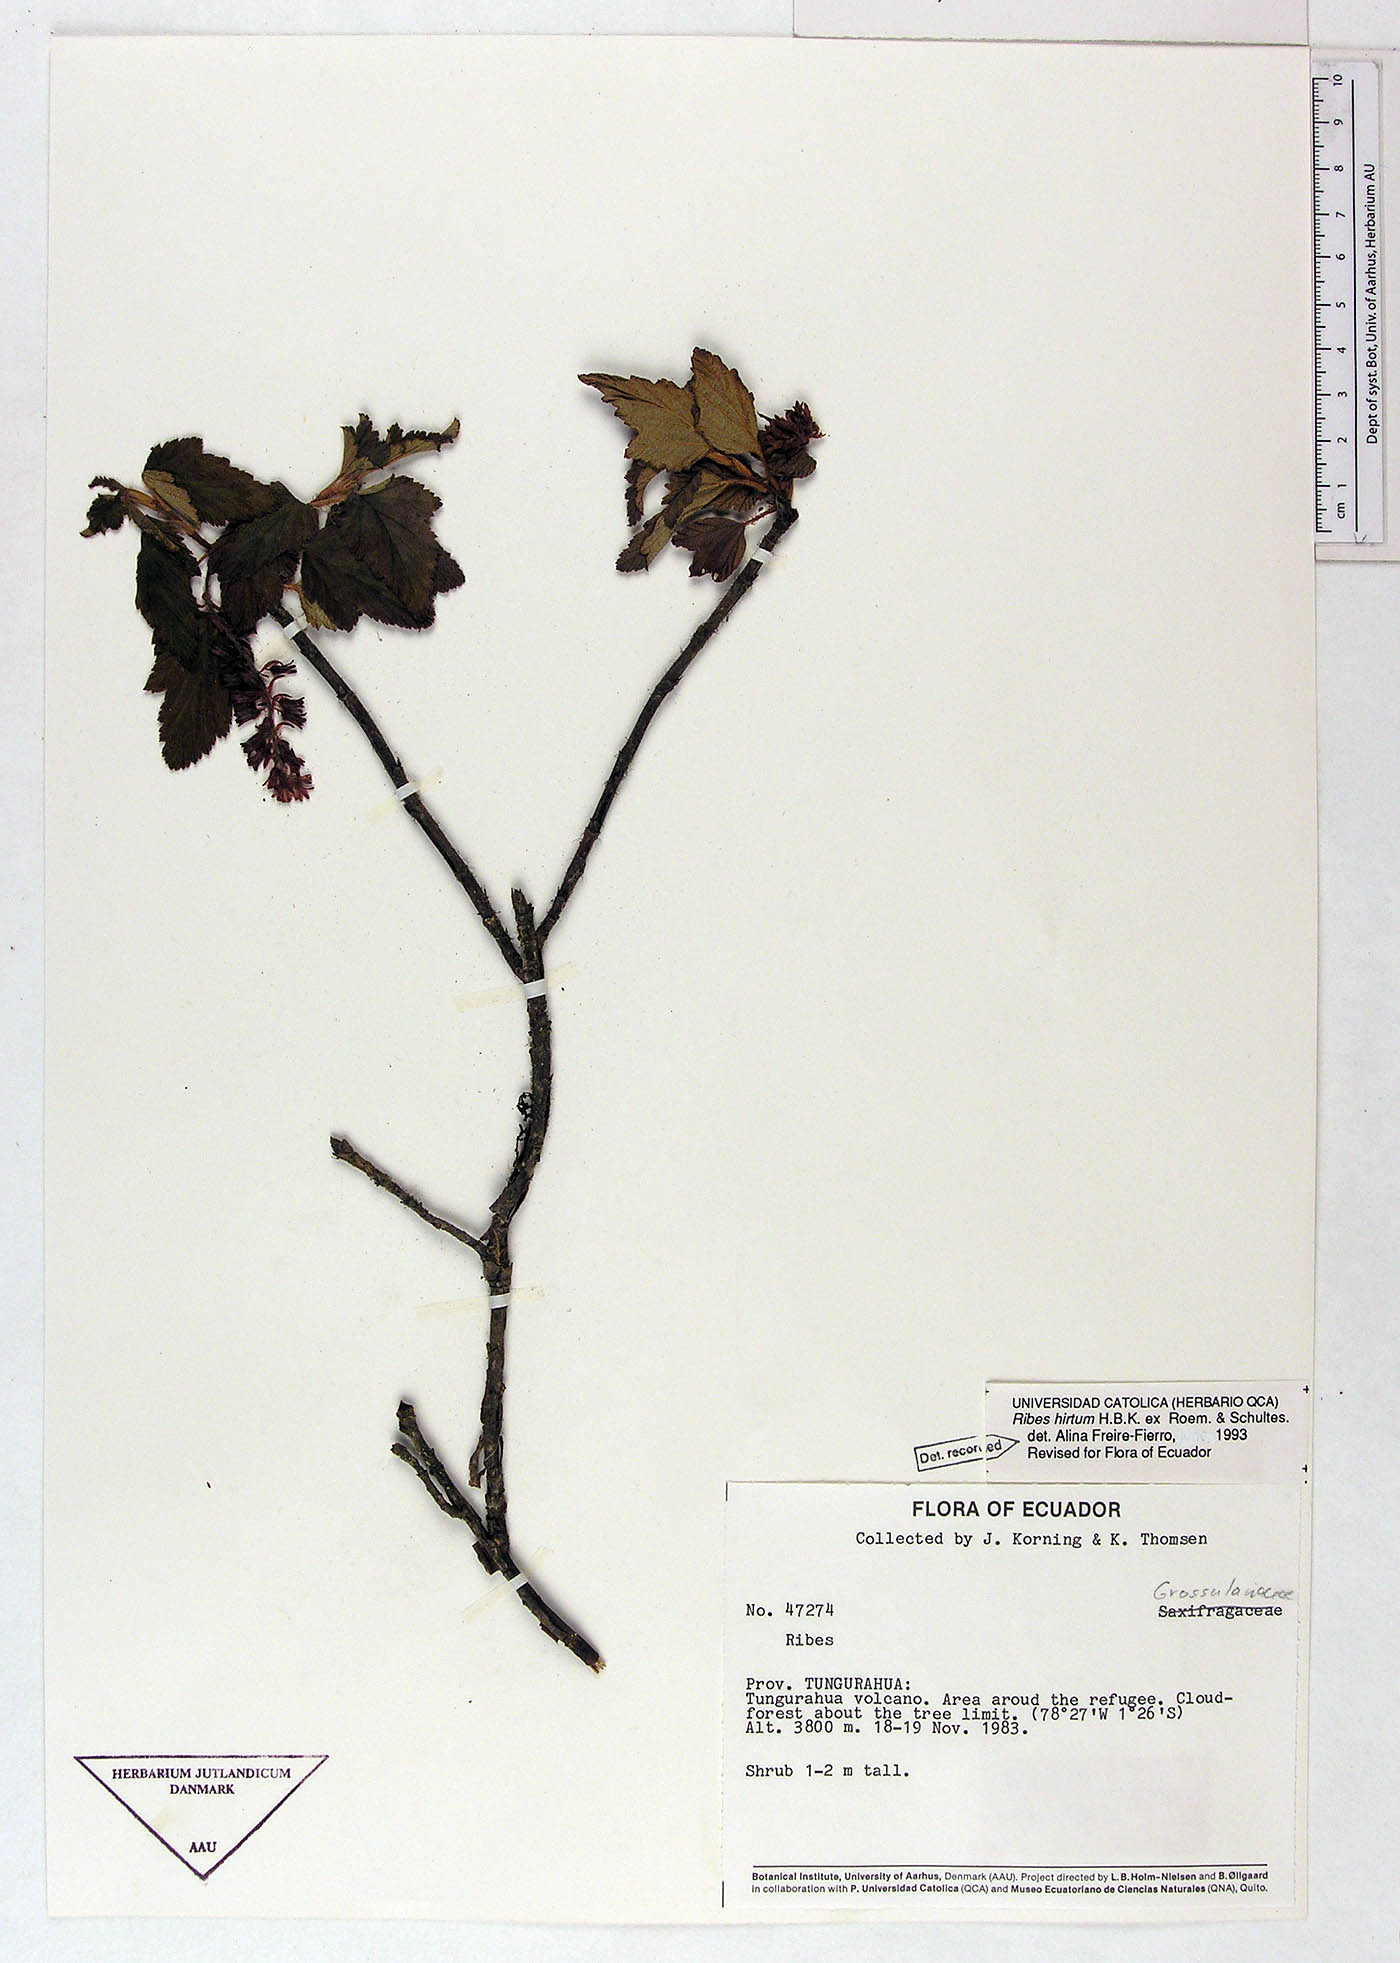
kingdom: Plantae
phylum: Tracheophyta
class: Magnoliopsida
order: Saxifragales
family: Grossulariaceae
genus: Ribes
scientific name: Ribes hirtum
